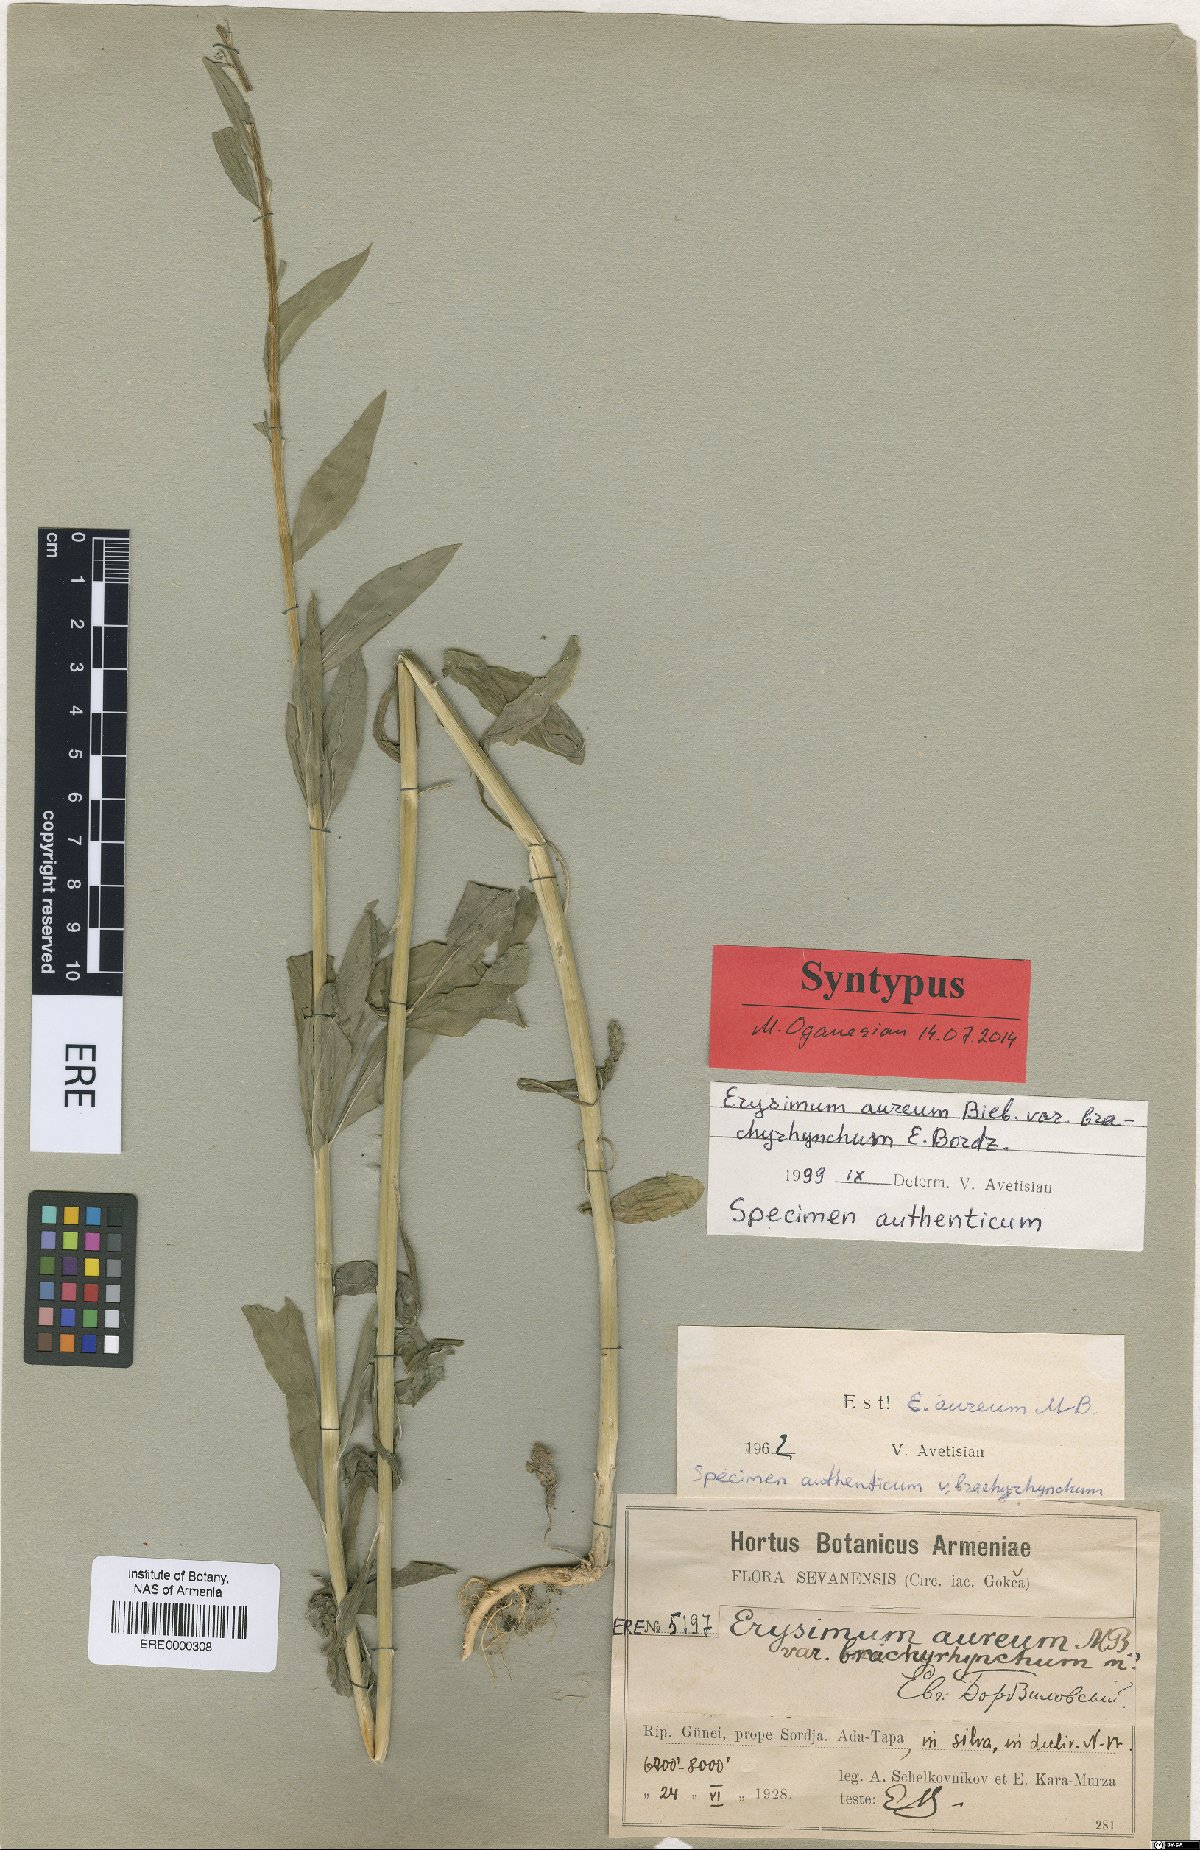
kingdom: Plantae
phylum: Tracheophyta
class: Magnoliopsida
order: Brassicales
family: Brassicaceae
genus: Erysimum
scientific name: Erysimum aureum
